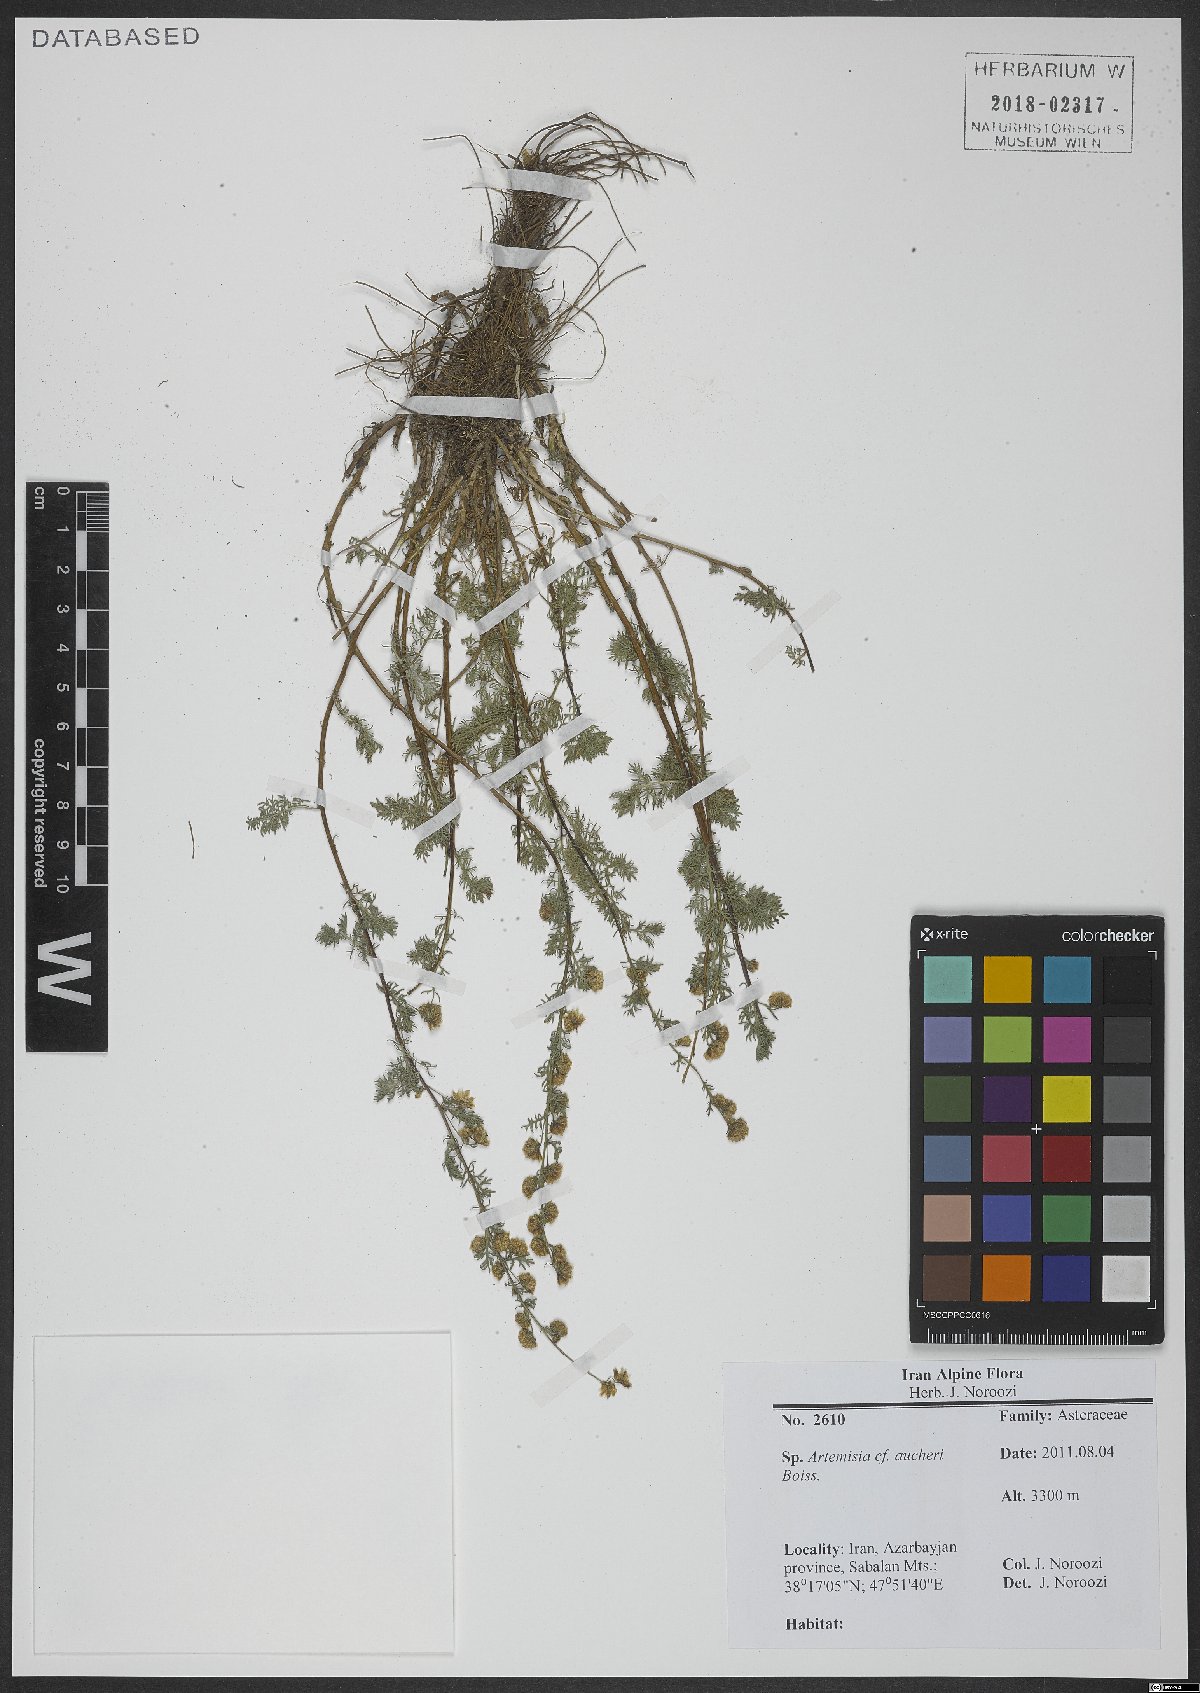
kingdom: Plantae
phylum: Tracheophyta
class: Magnoliopsida
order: Asterales
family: Asteraceae
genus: Artemisia
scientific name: Artemisia aucheri
